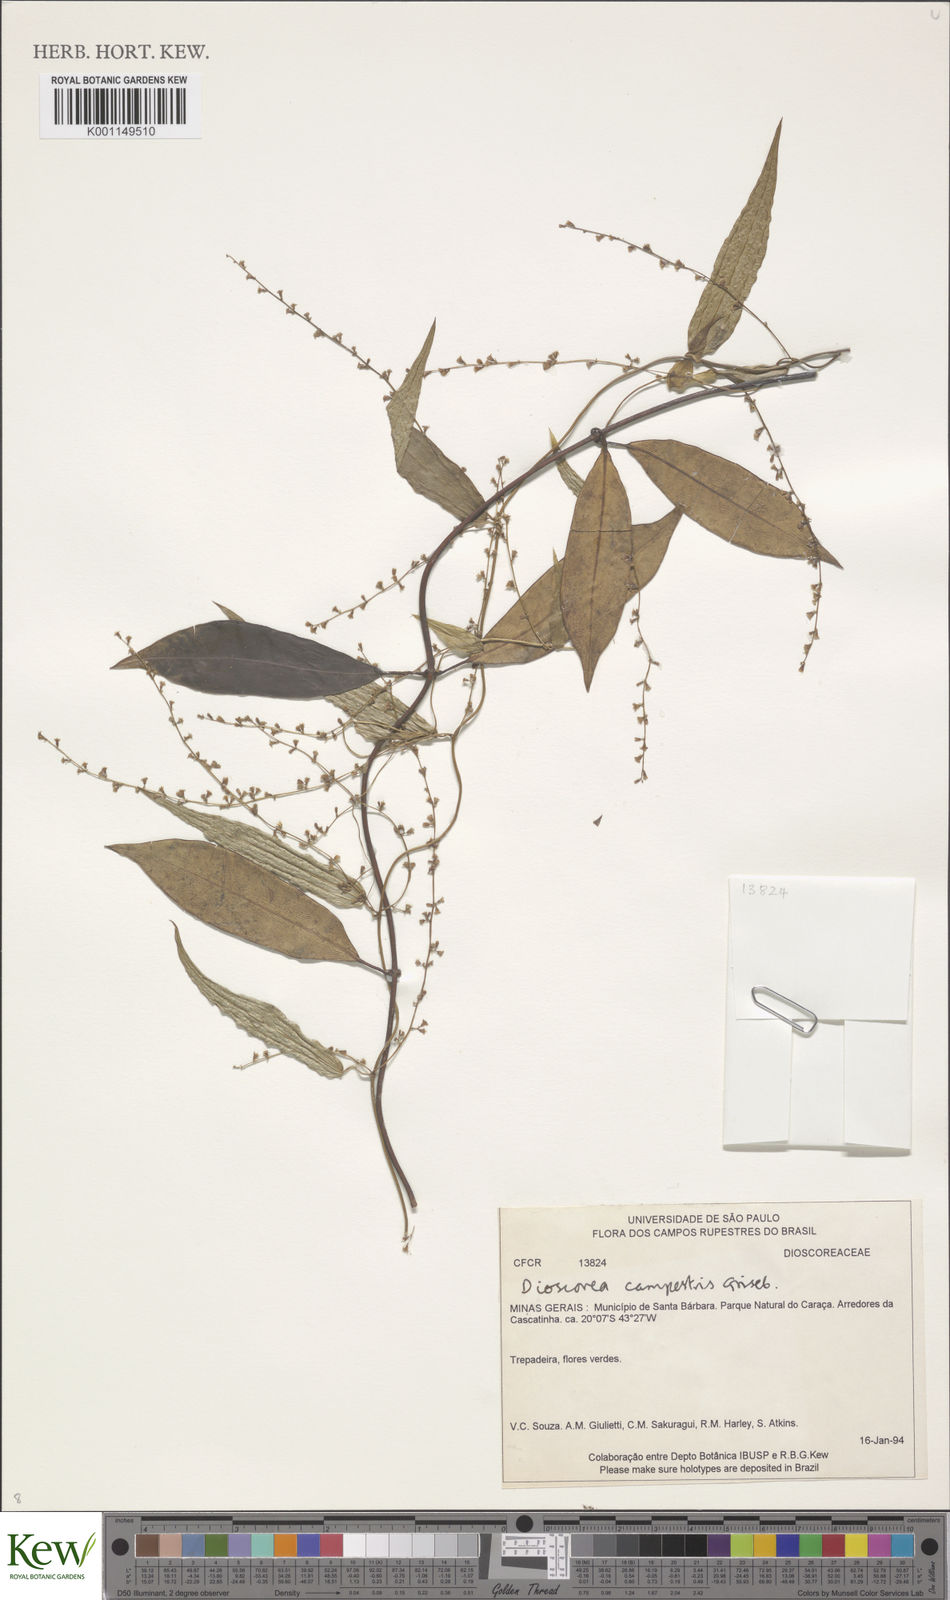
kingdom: Plantae
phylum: Tracheophyta
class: Liliopsida
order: Dioscoreales
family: Dioscoreaceae
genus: Dioscorea
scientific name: Dioscorea campestris
